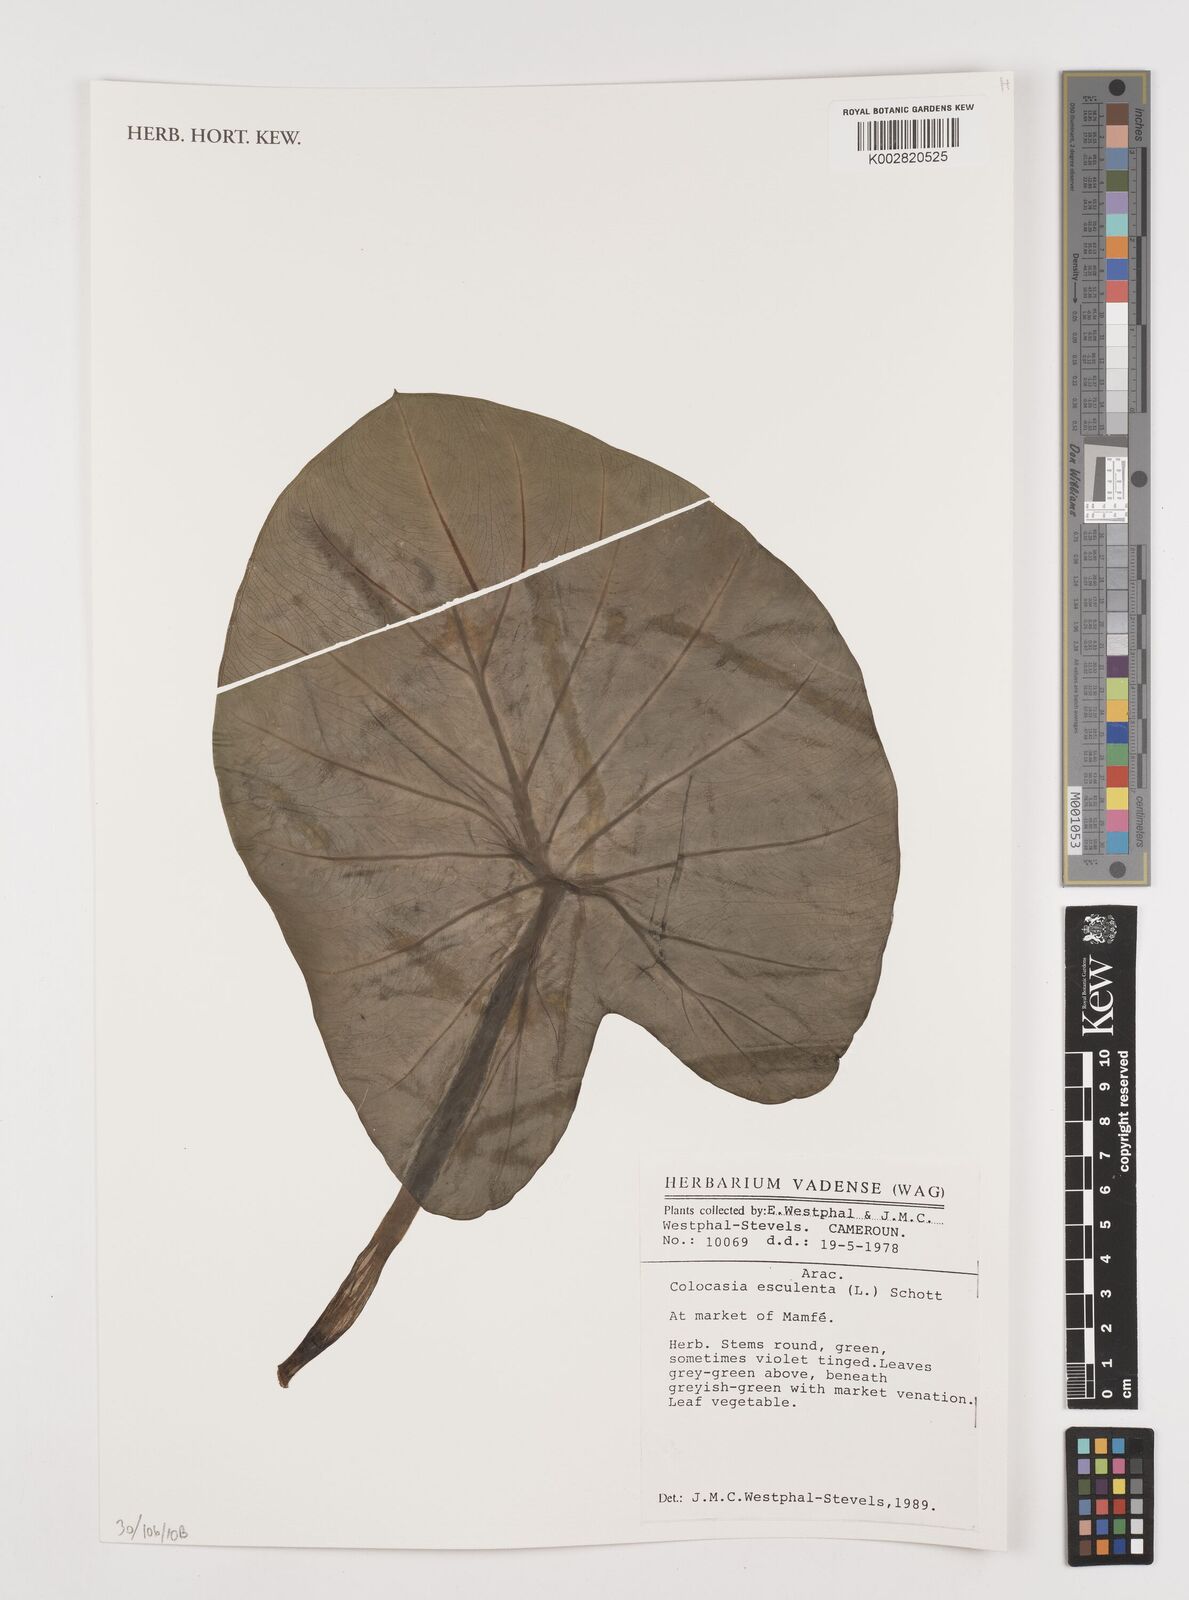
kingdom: Plantae
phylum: Tracheophyta
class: Liliopsida
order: Alismatales
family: Araceae
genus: Colocasia
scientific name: Colocasia esculenta
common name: Taro
